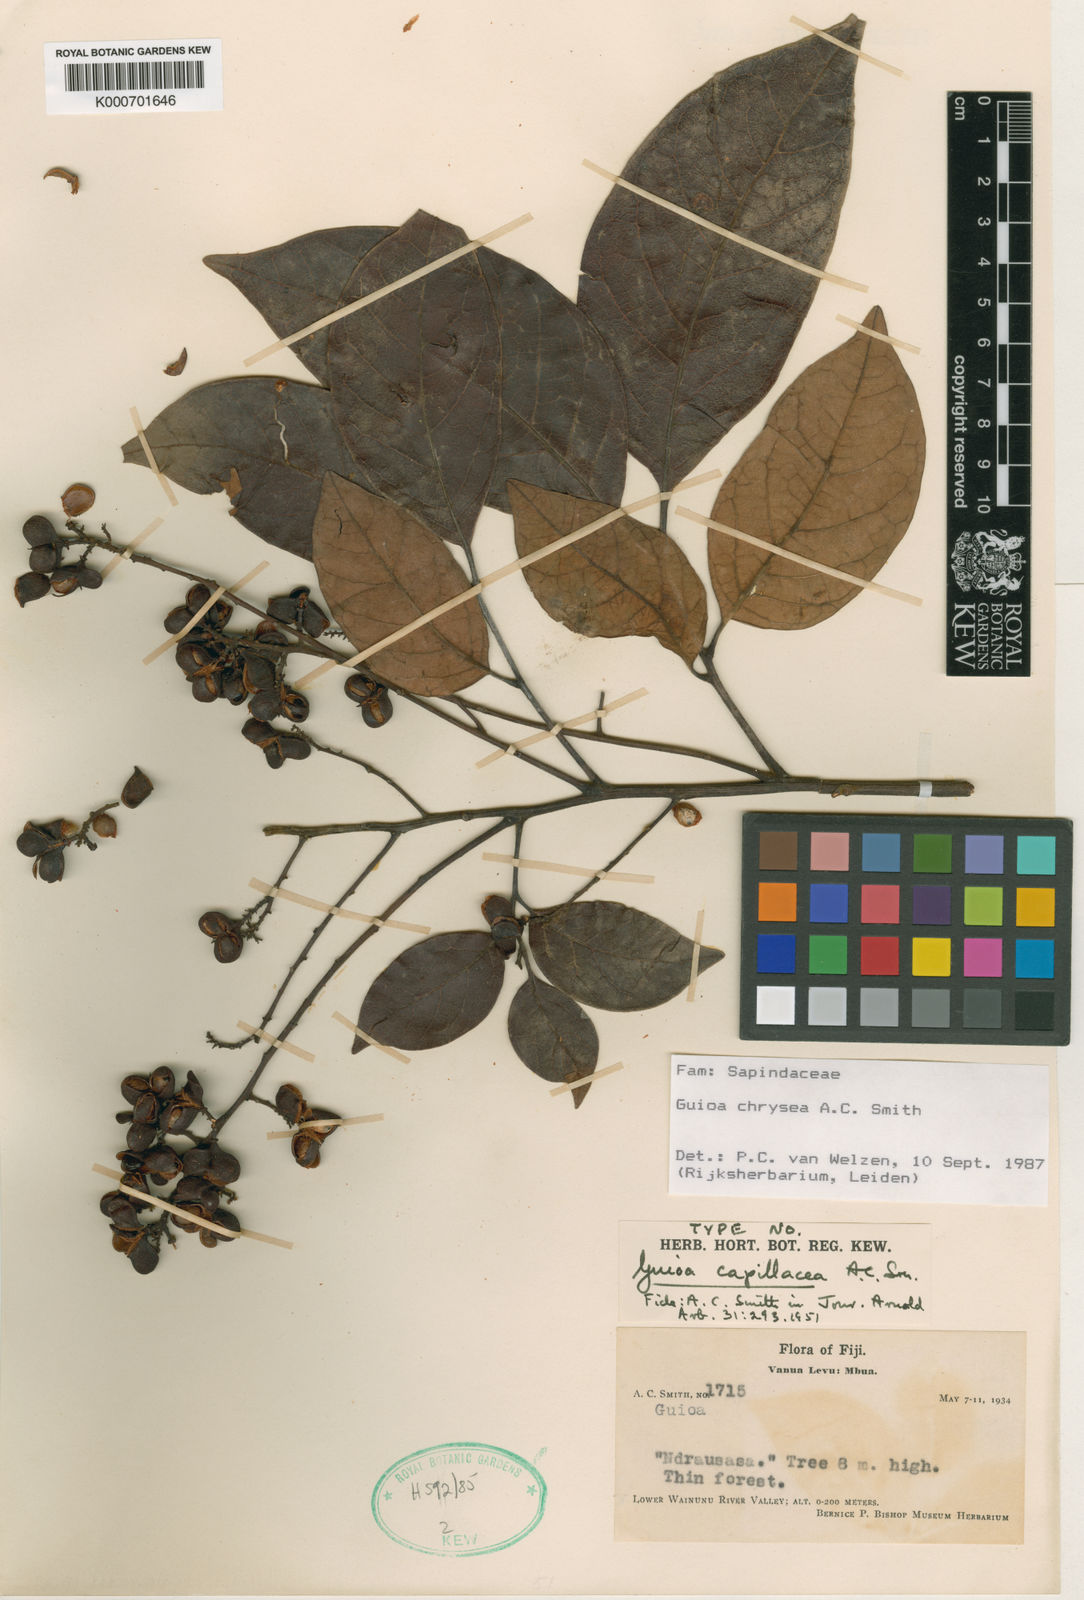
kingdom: Plantae
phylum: Tracheophyta
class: Magnoliopsida
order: Sapindales
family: Sapindaceae
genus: Guioa
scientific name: Guioa chrysea
